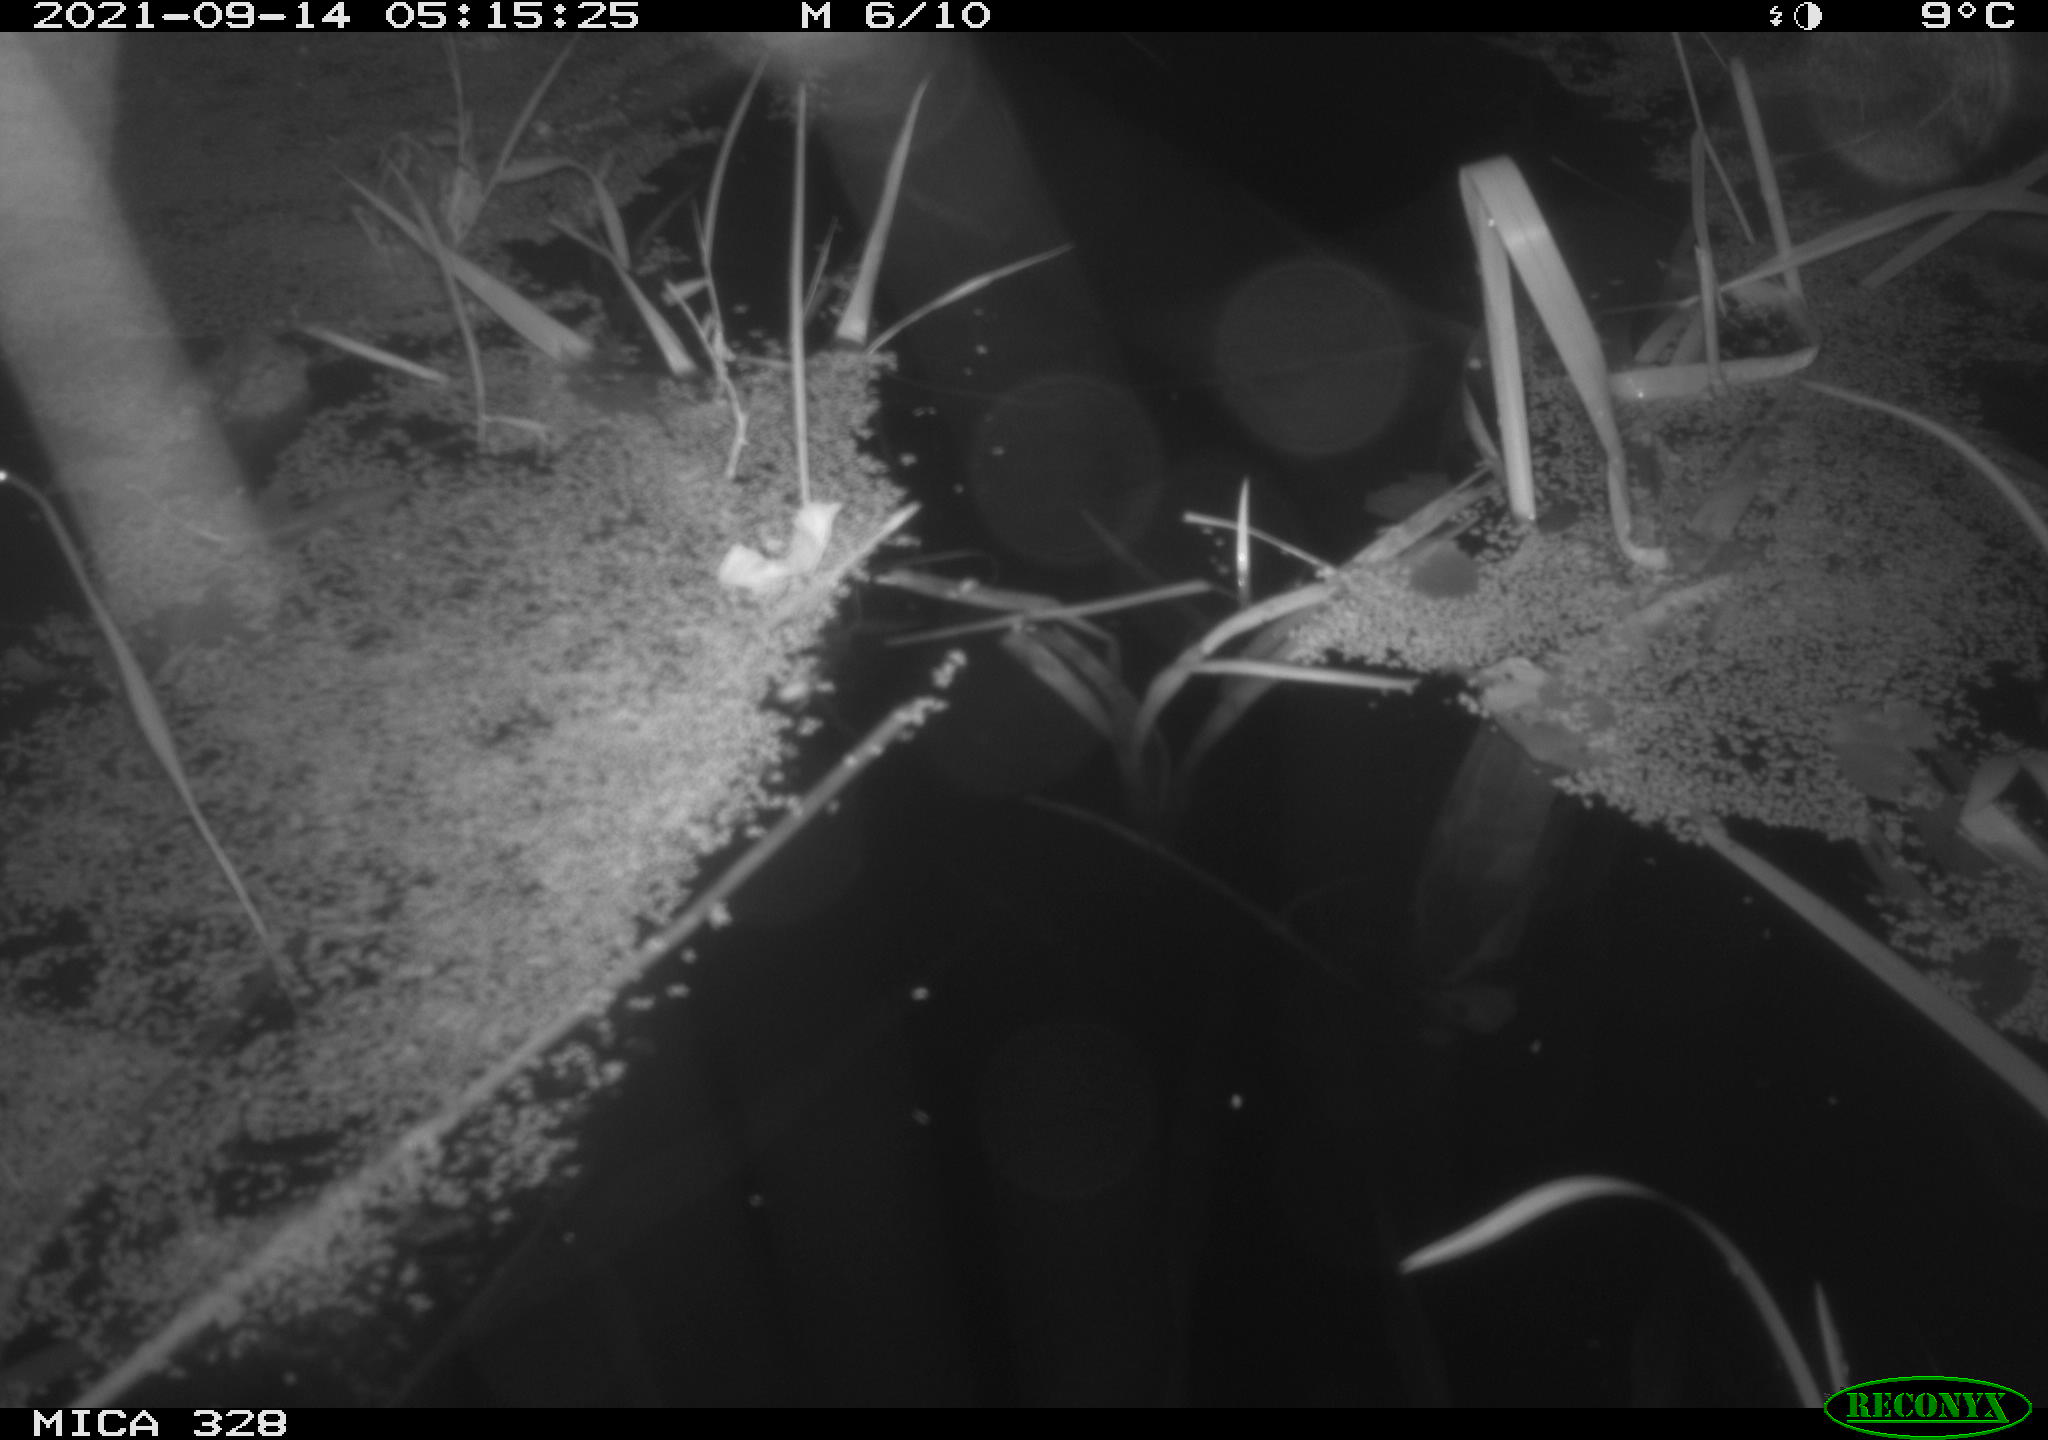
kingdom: Animalia
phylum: Chordata
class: Mammalia
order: Rodentia
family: Cricetidae
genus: Ondatra
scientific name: Ondatra zibethicus
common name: Muskrat
